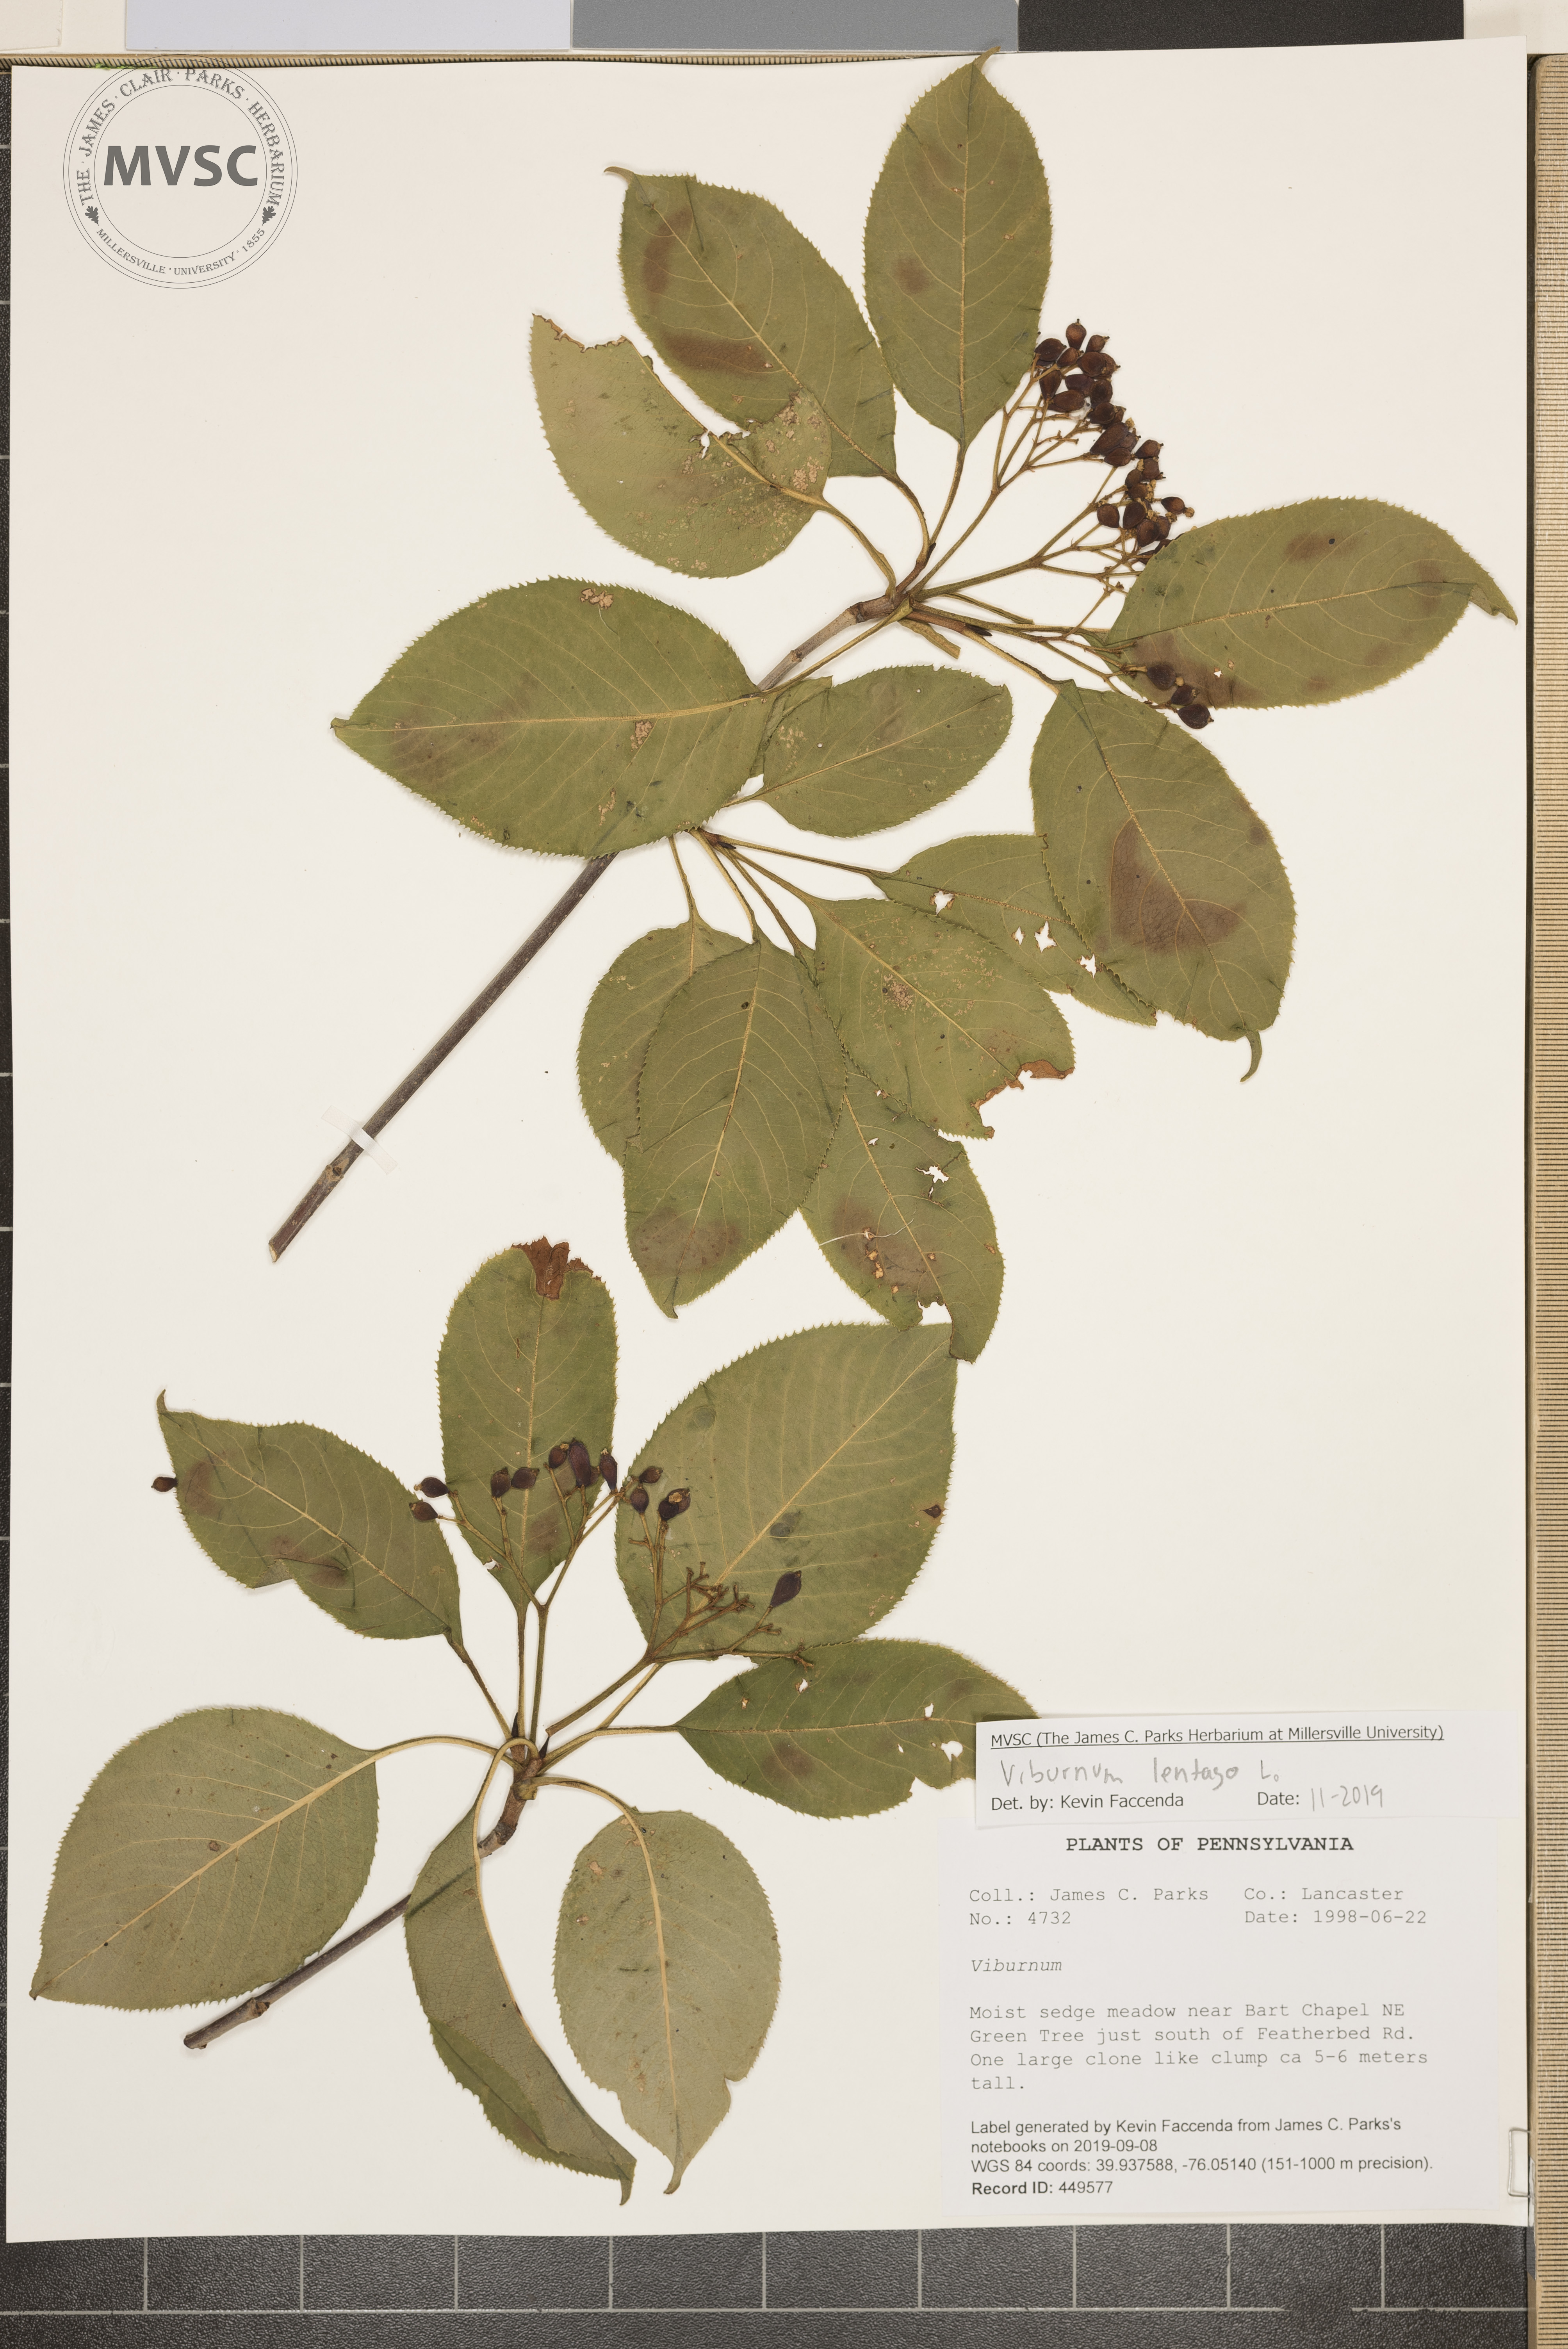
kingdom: Plantae
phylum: Tracheophyta
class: Magnoliopsida
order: Dipsacales
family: Viburnaceae
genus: Viburnum
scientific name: Viburnum lentago
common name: Black haw
